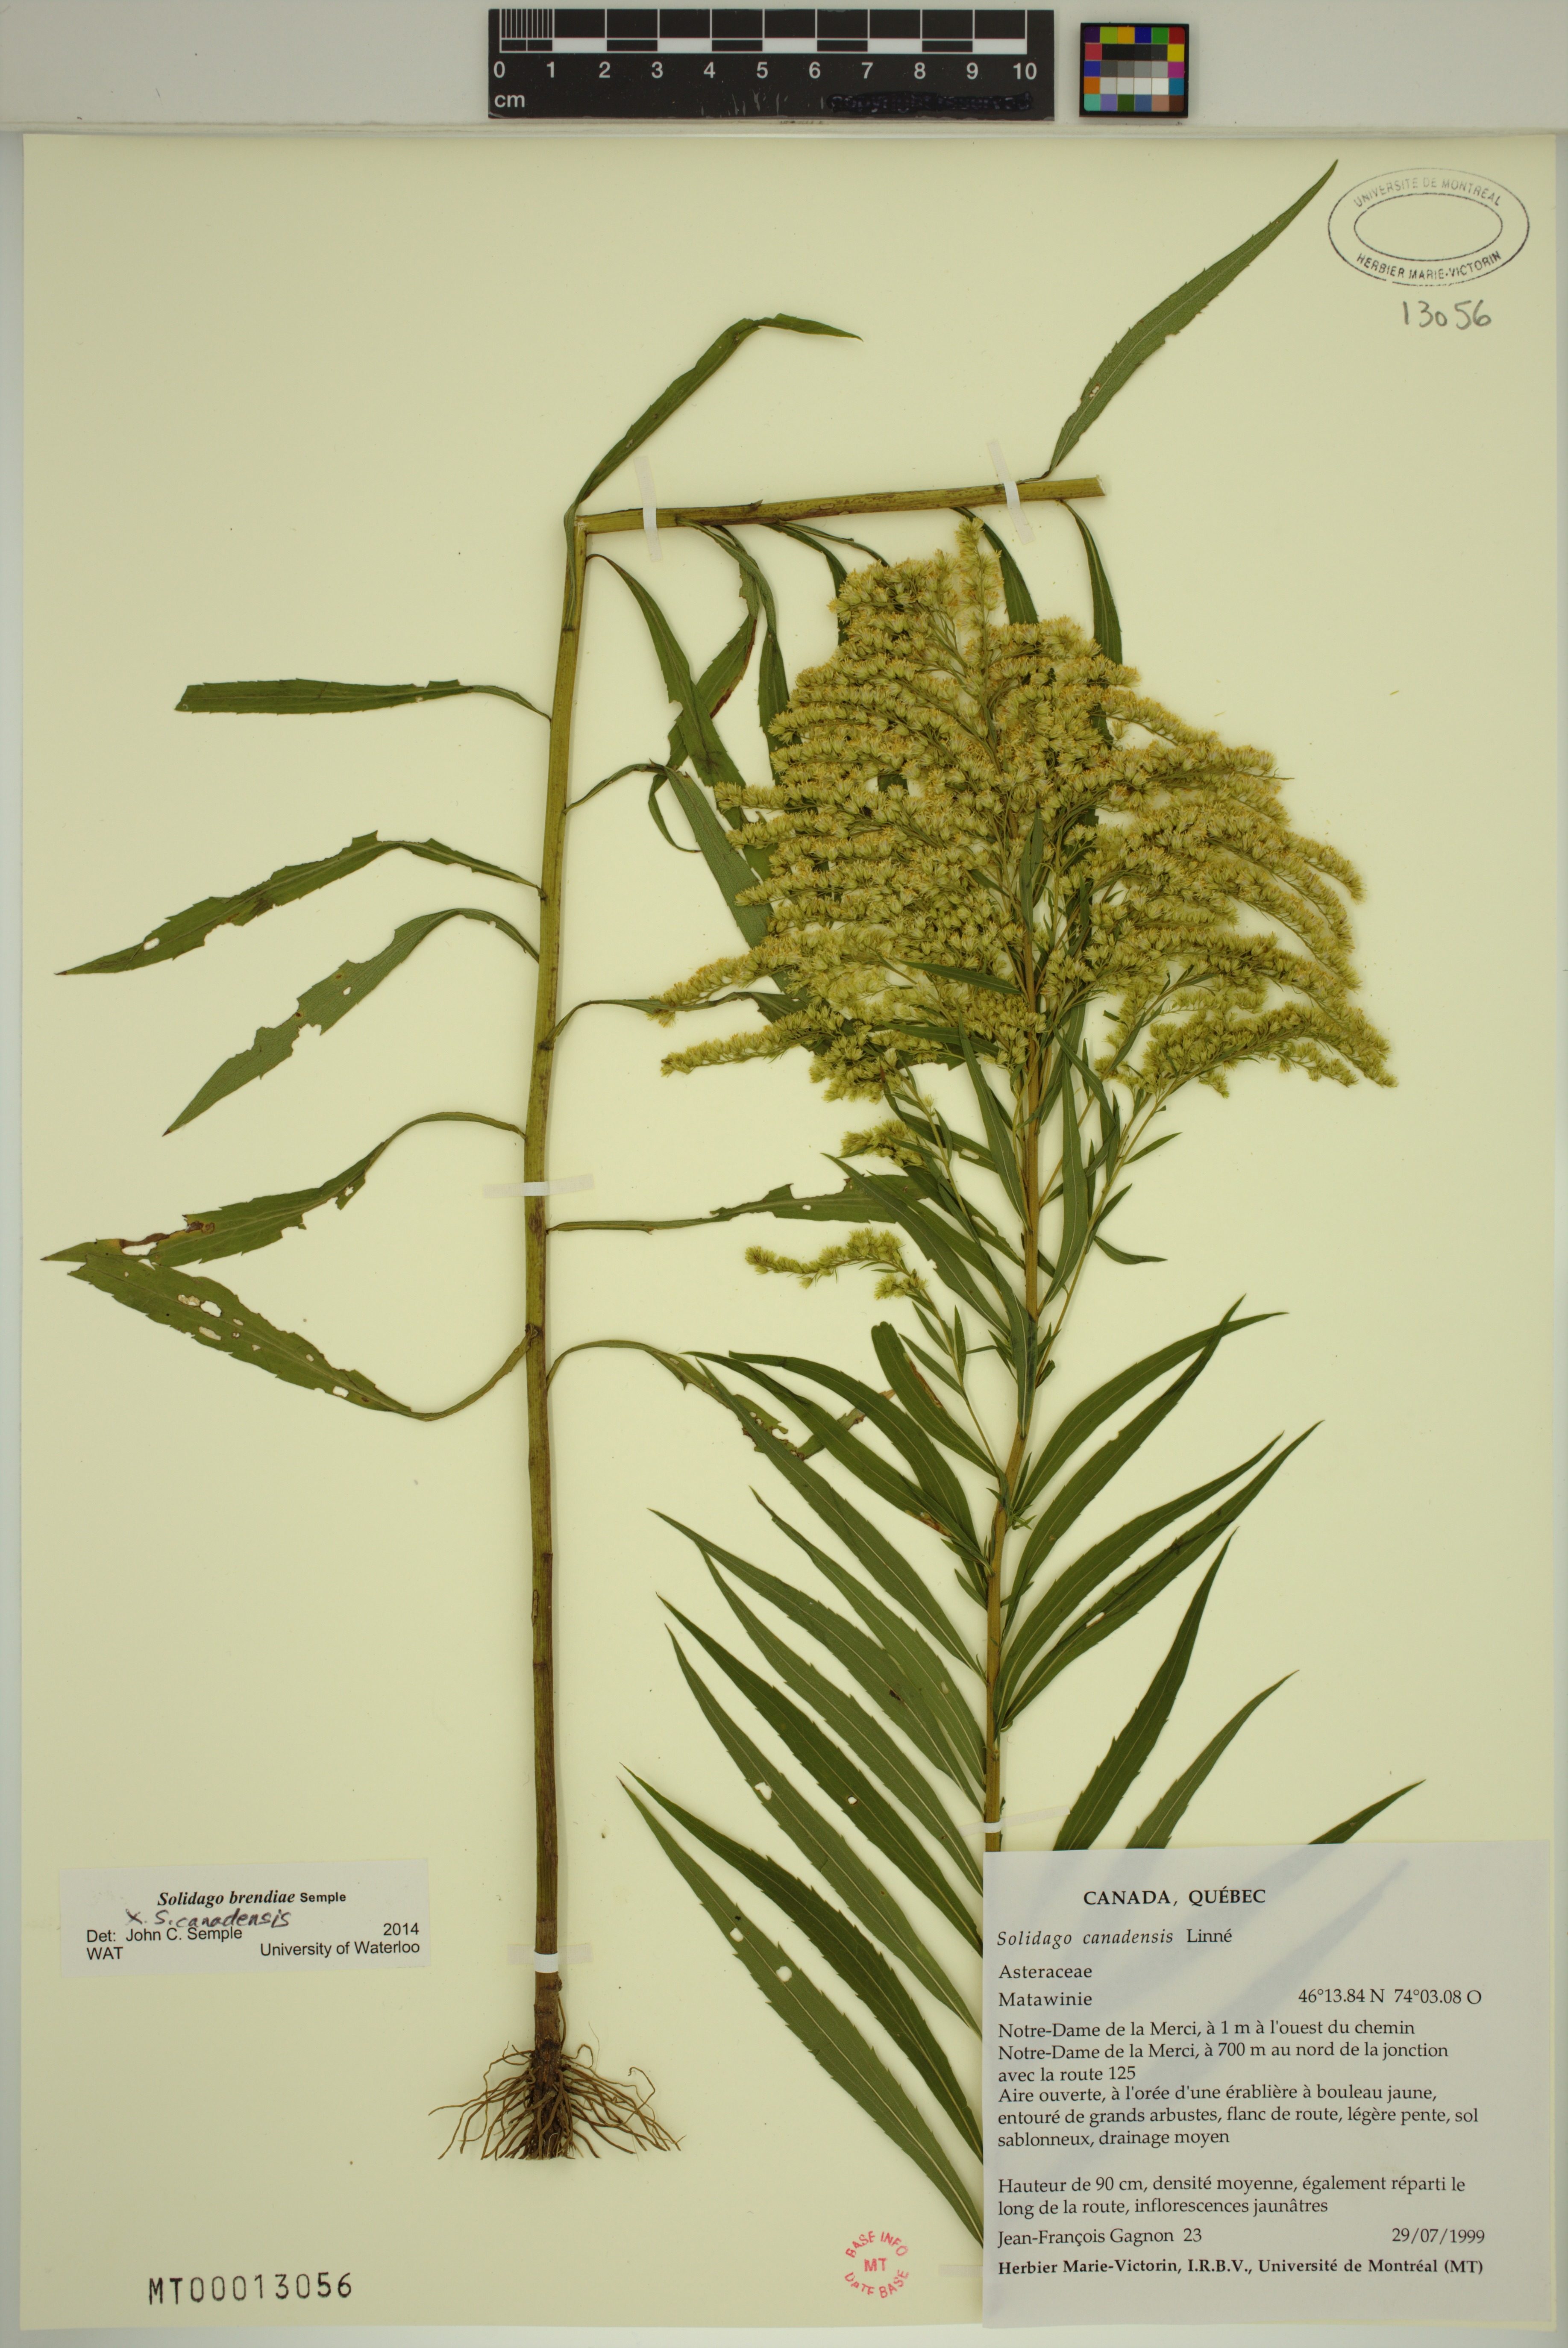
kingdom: Plantae
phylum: Tracheophyta
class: Magnoliopsida
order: Asterales
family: Asteraceae
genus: Solidago
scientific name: Solidago brendae
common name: Brenda's goldenrod
